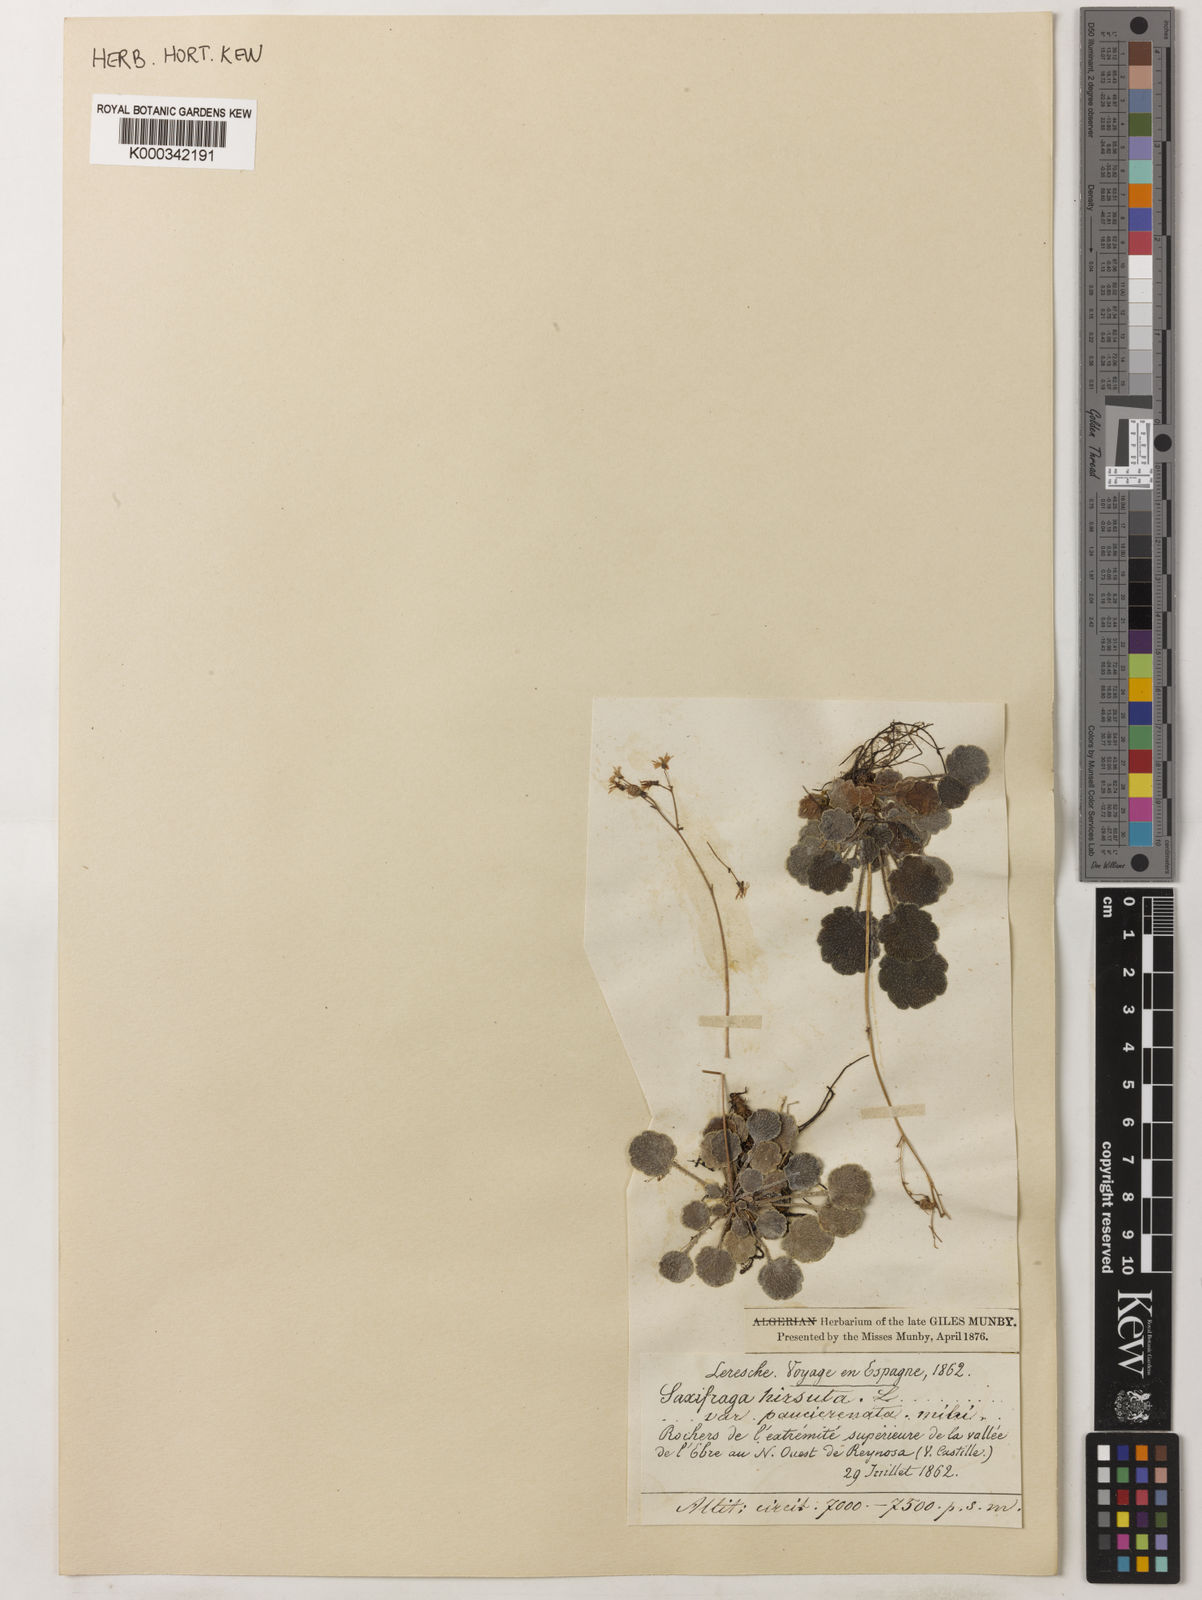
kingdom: Plantae
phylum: Tracheophyta
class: Magnoliopsida
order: Saxifragales
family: Saxifragaceae
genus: Saxifraga
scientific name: Saxifraga hirsuta
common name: Kidney saxifrage
